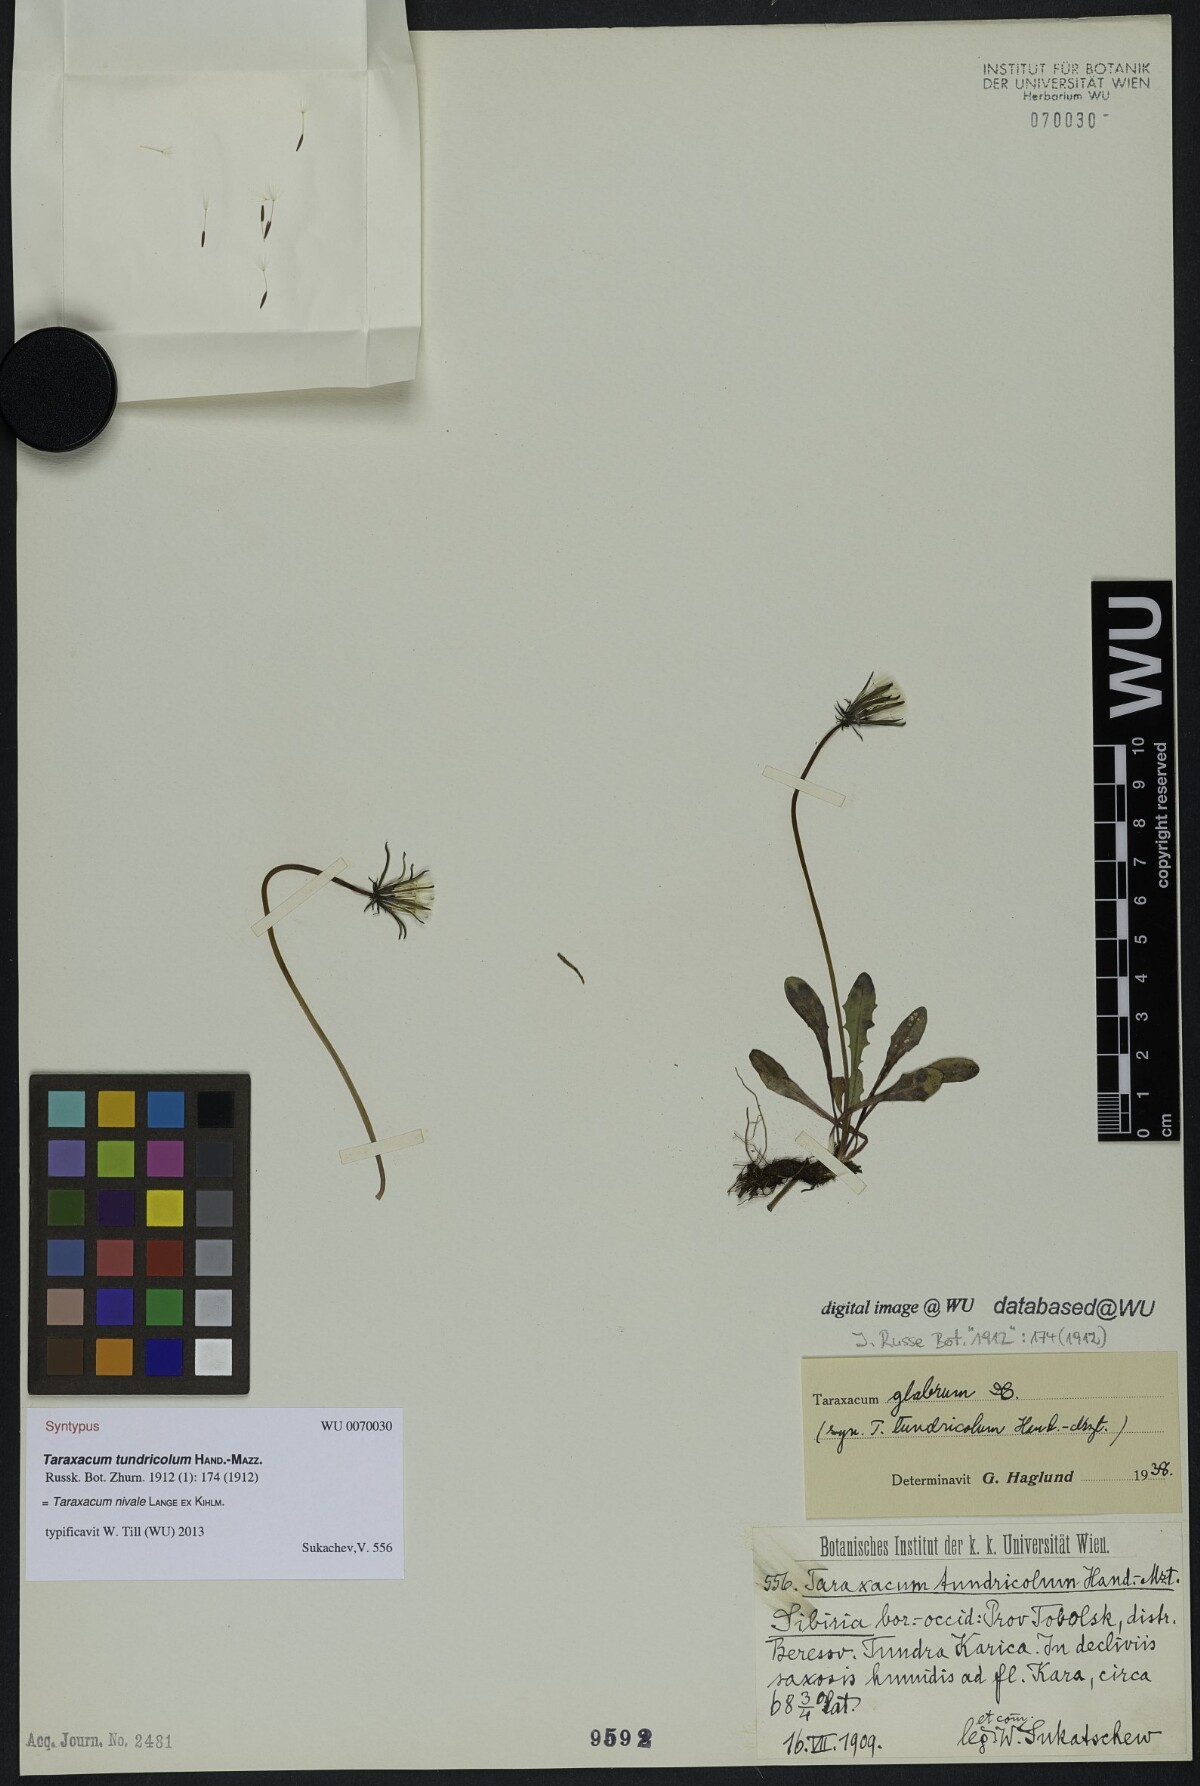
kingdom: Plantae
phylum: Tracheophyta
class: Magnoliopsida
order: Asterales
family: Asteraceae
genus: Taraxacum
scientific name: Taraxacum nivale
